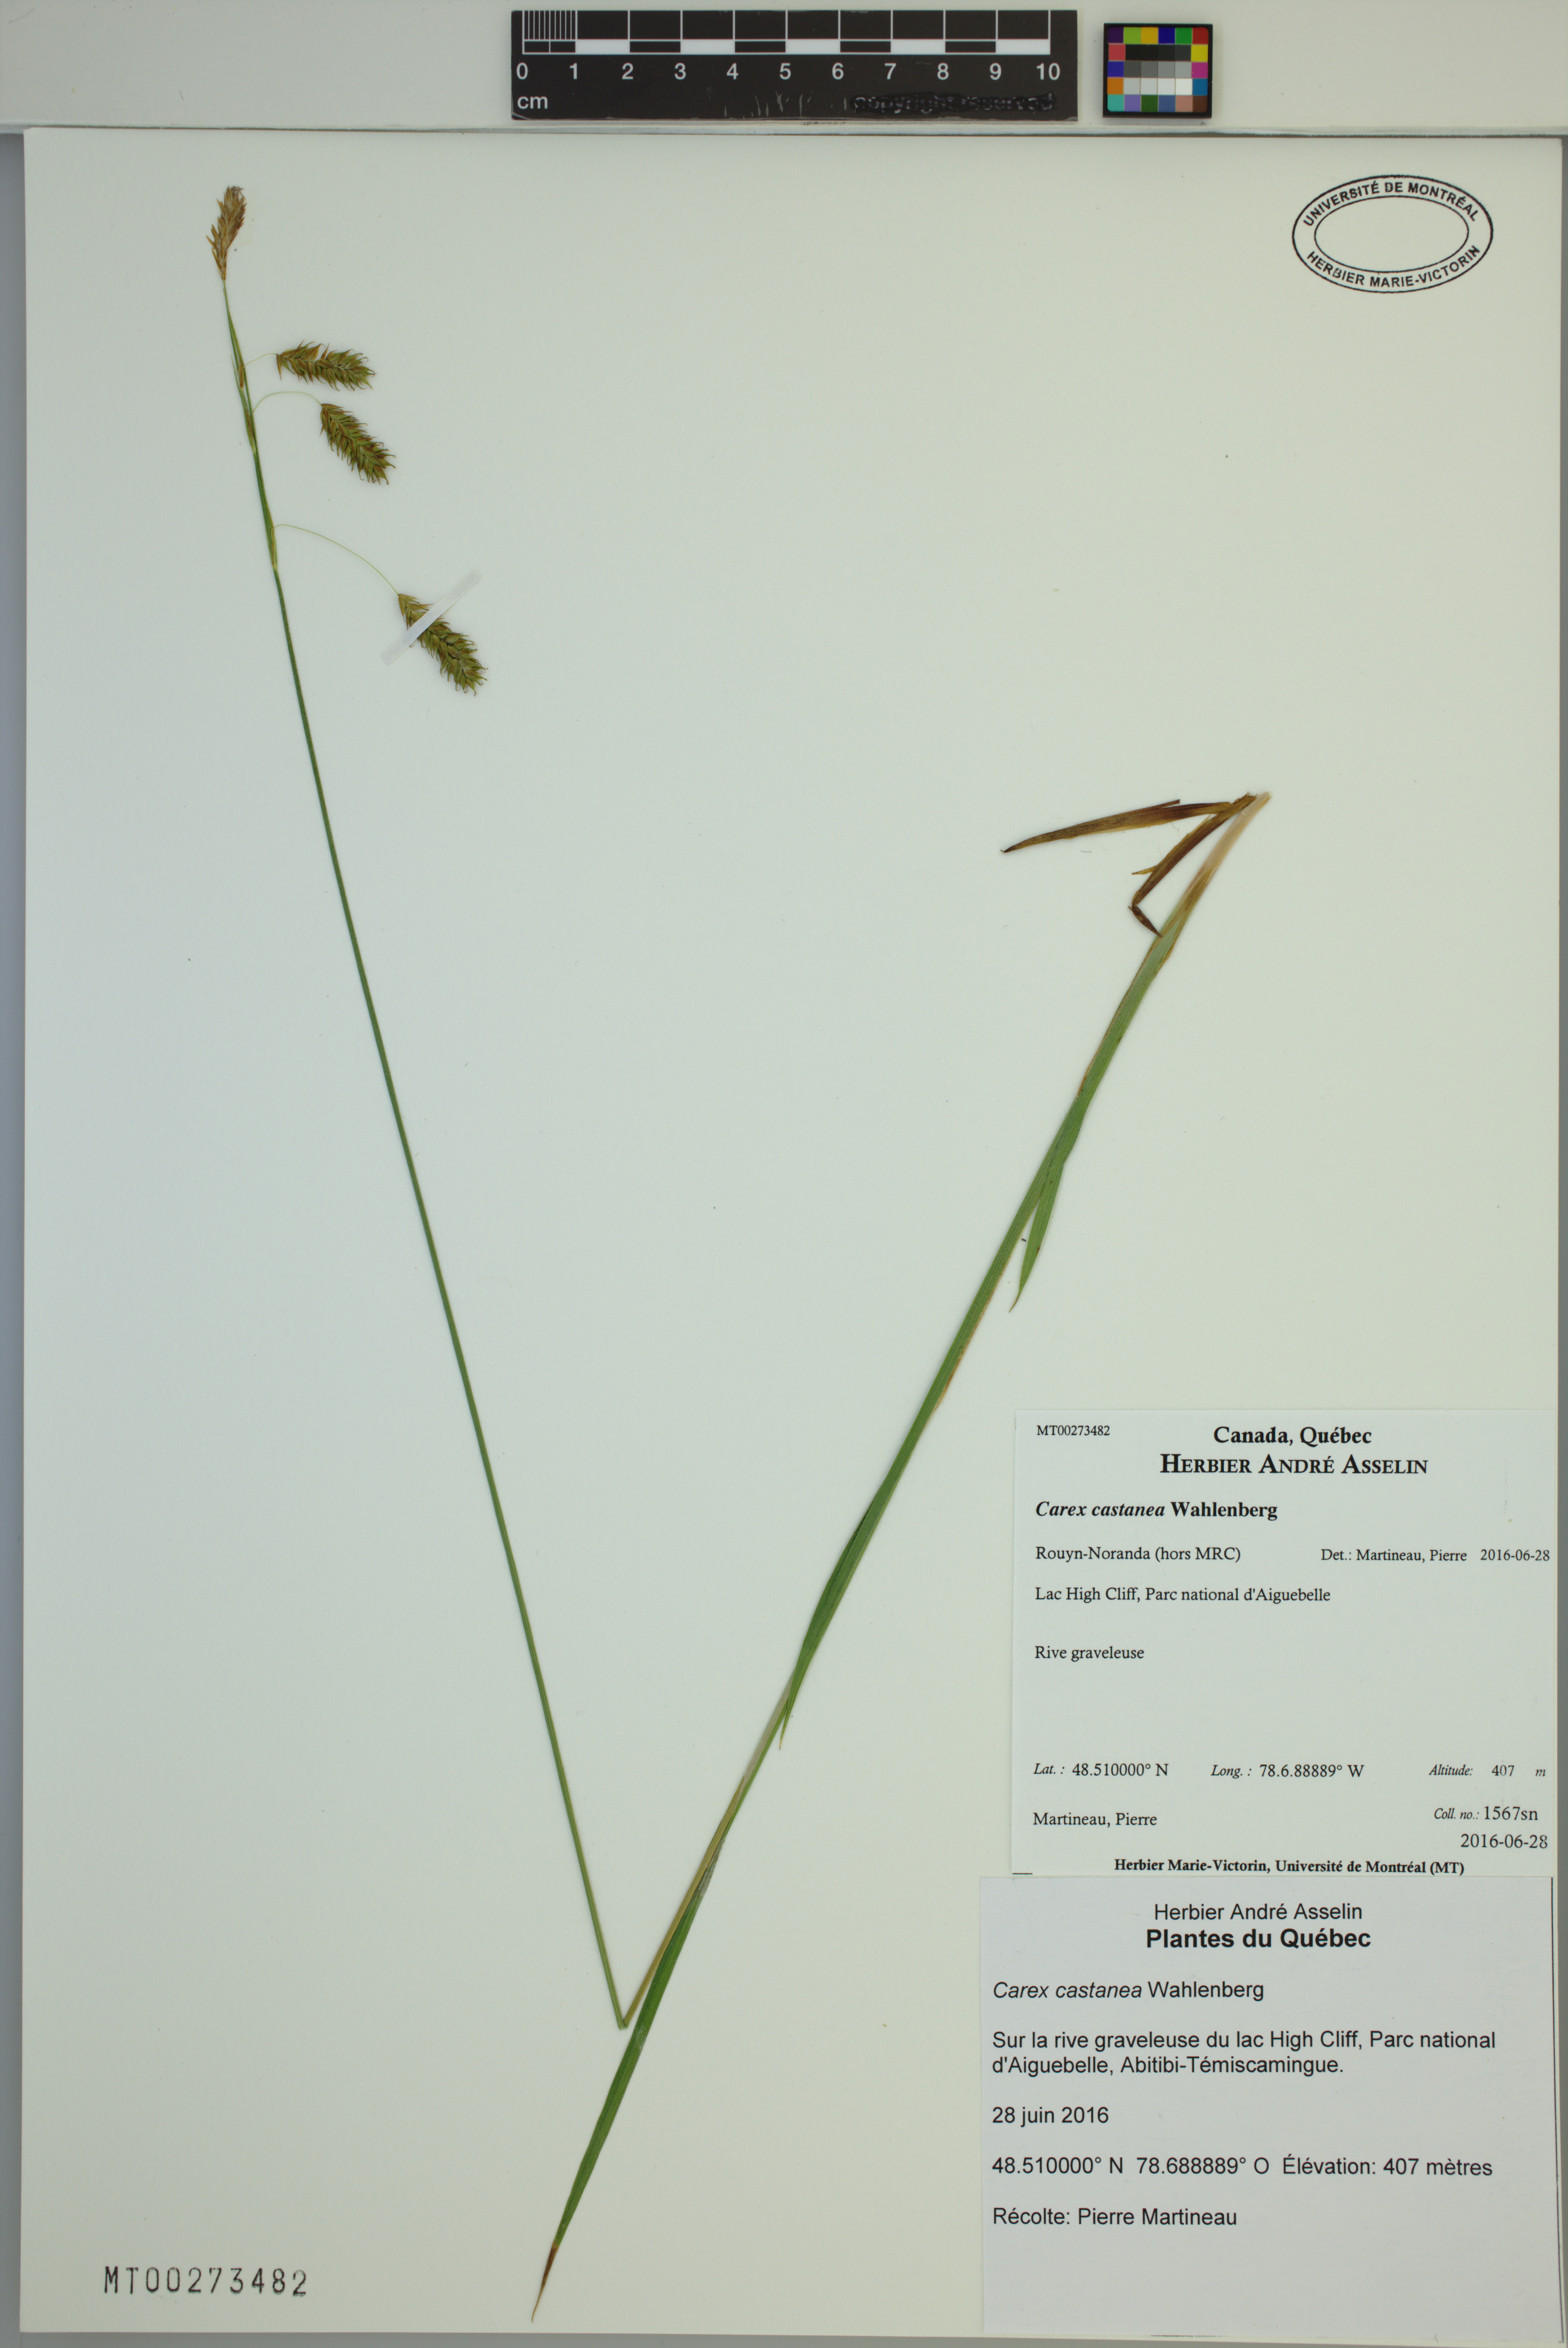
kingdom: Plantae
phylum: Tracheophyta
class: Liliopsida
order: Poales
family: Cyperaceae
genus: Carex
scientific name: Carex castanea
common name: Chestnut sedge
